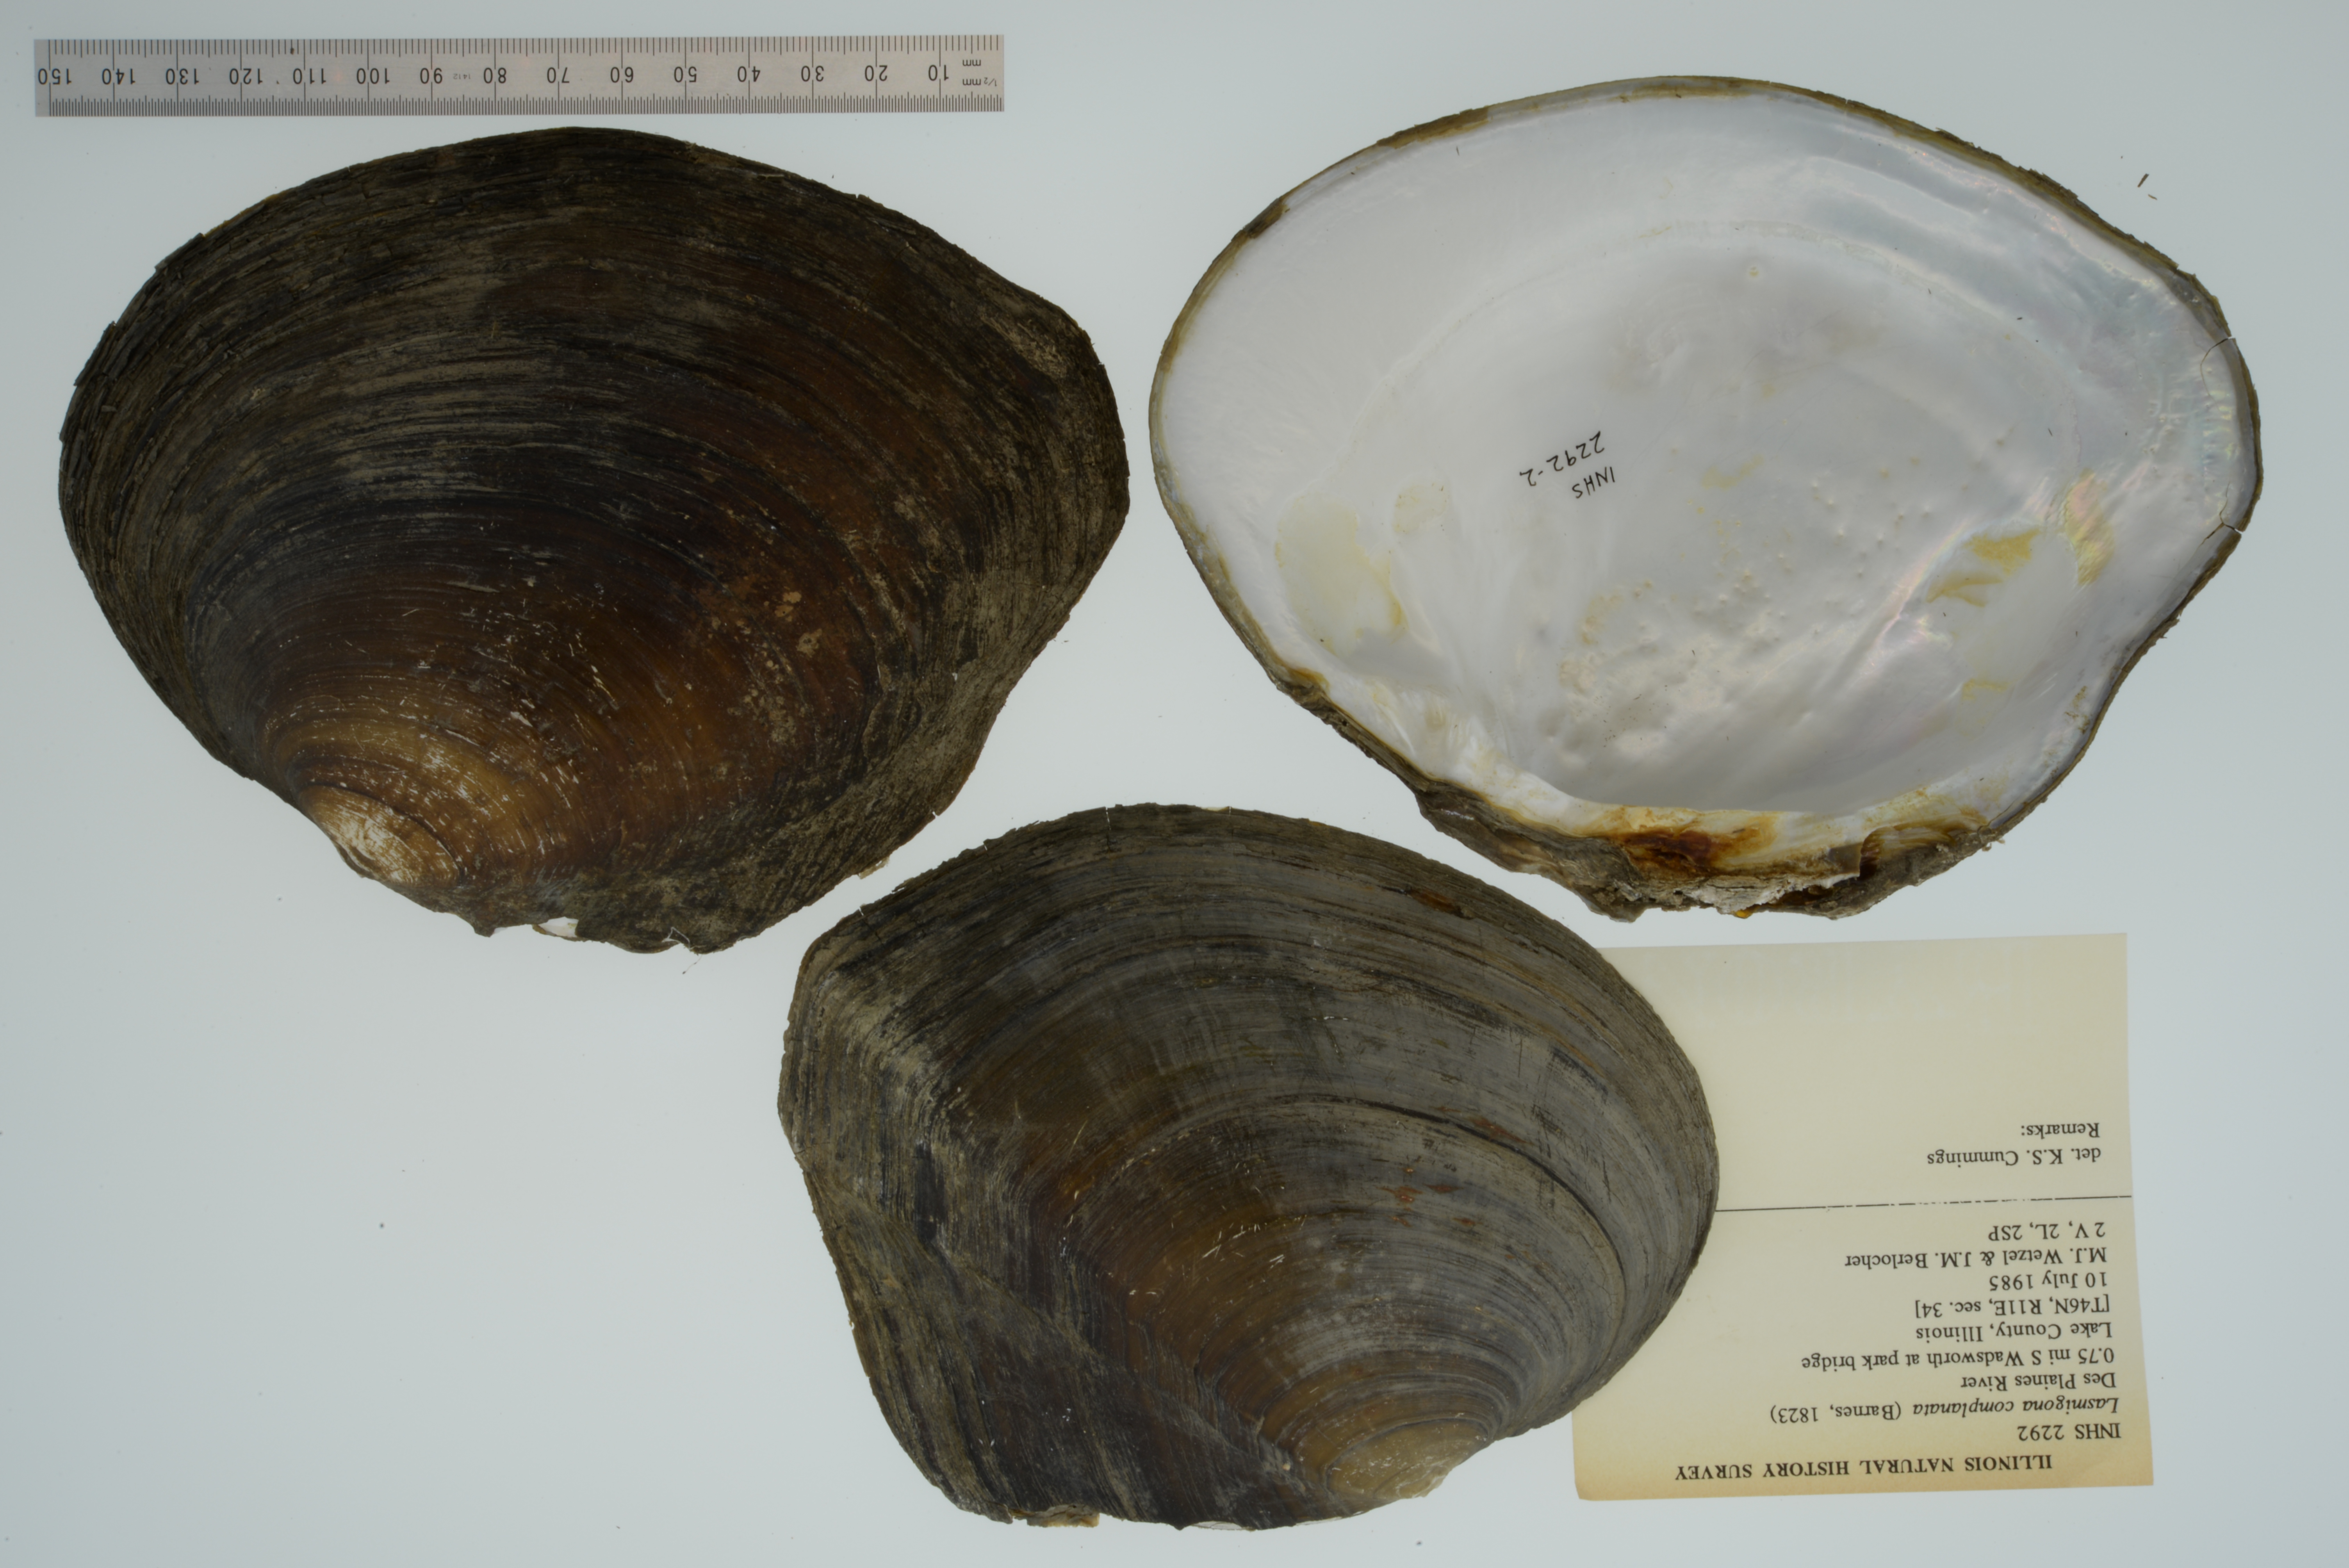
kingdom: Animalia
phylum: Mollusca
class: Bivalvia
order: Unionida
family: Unionidae
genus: Lasmigona
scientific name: Lasmigona complanata
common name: White heelsplitter
